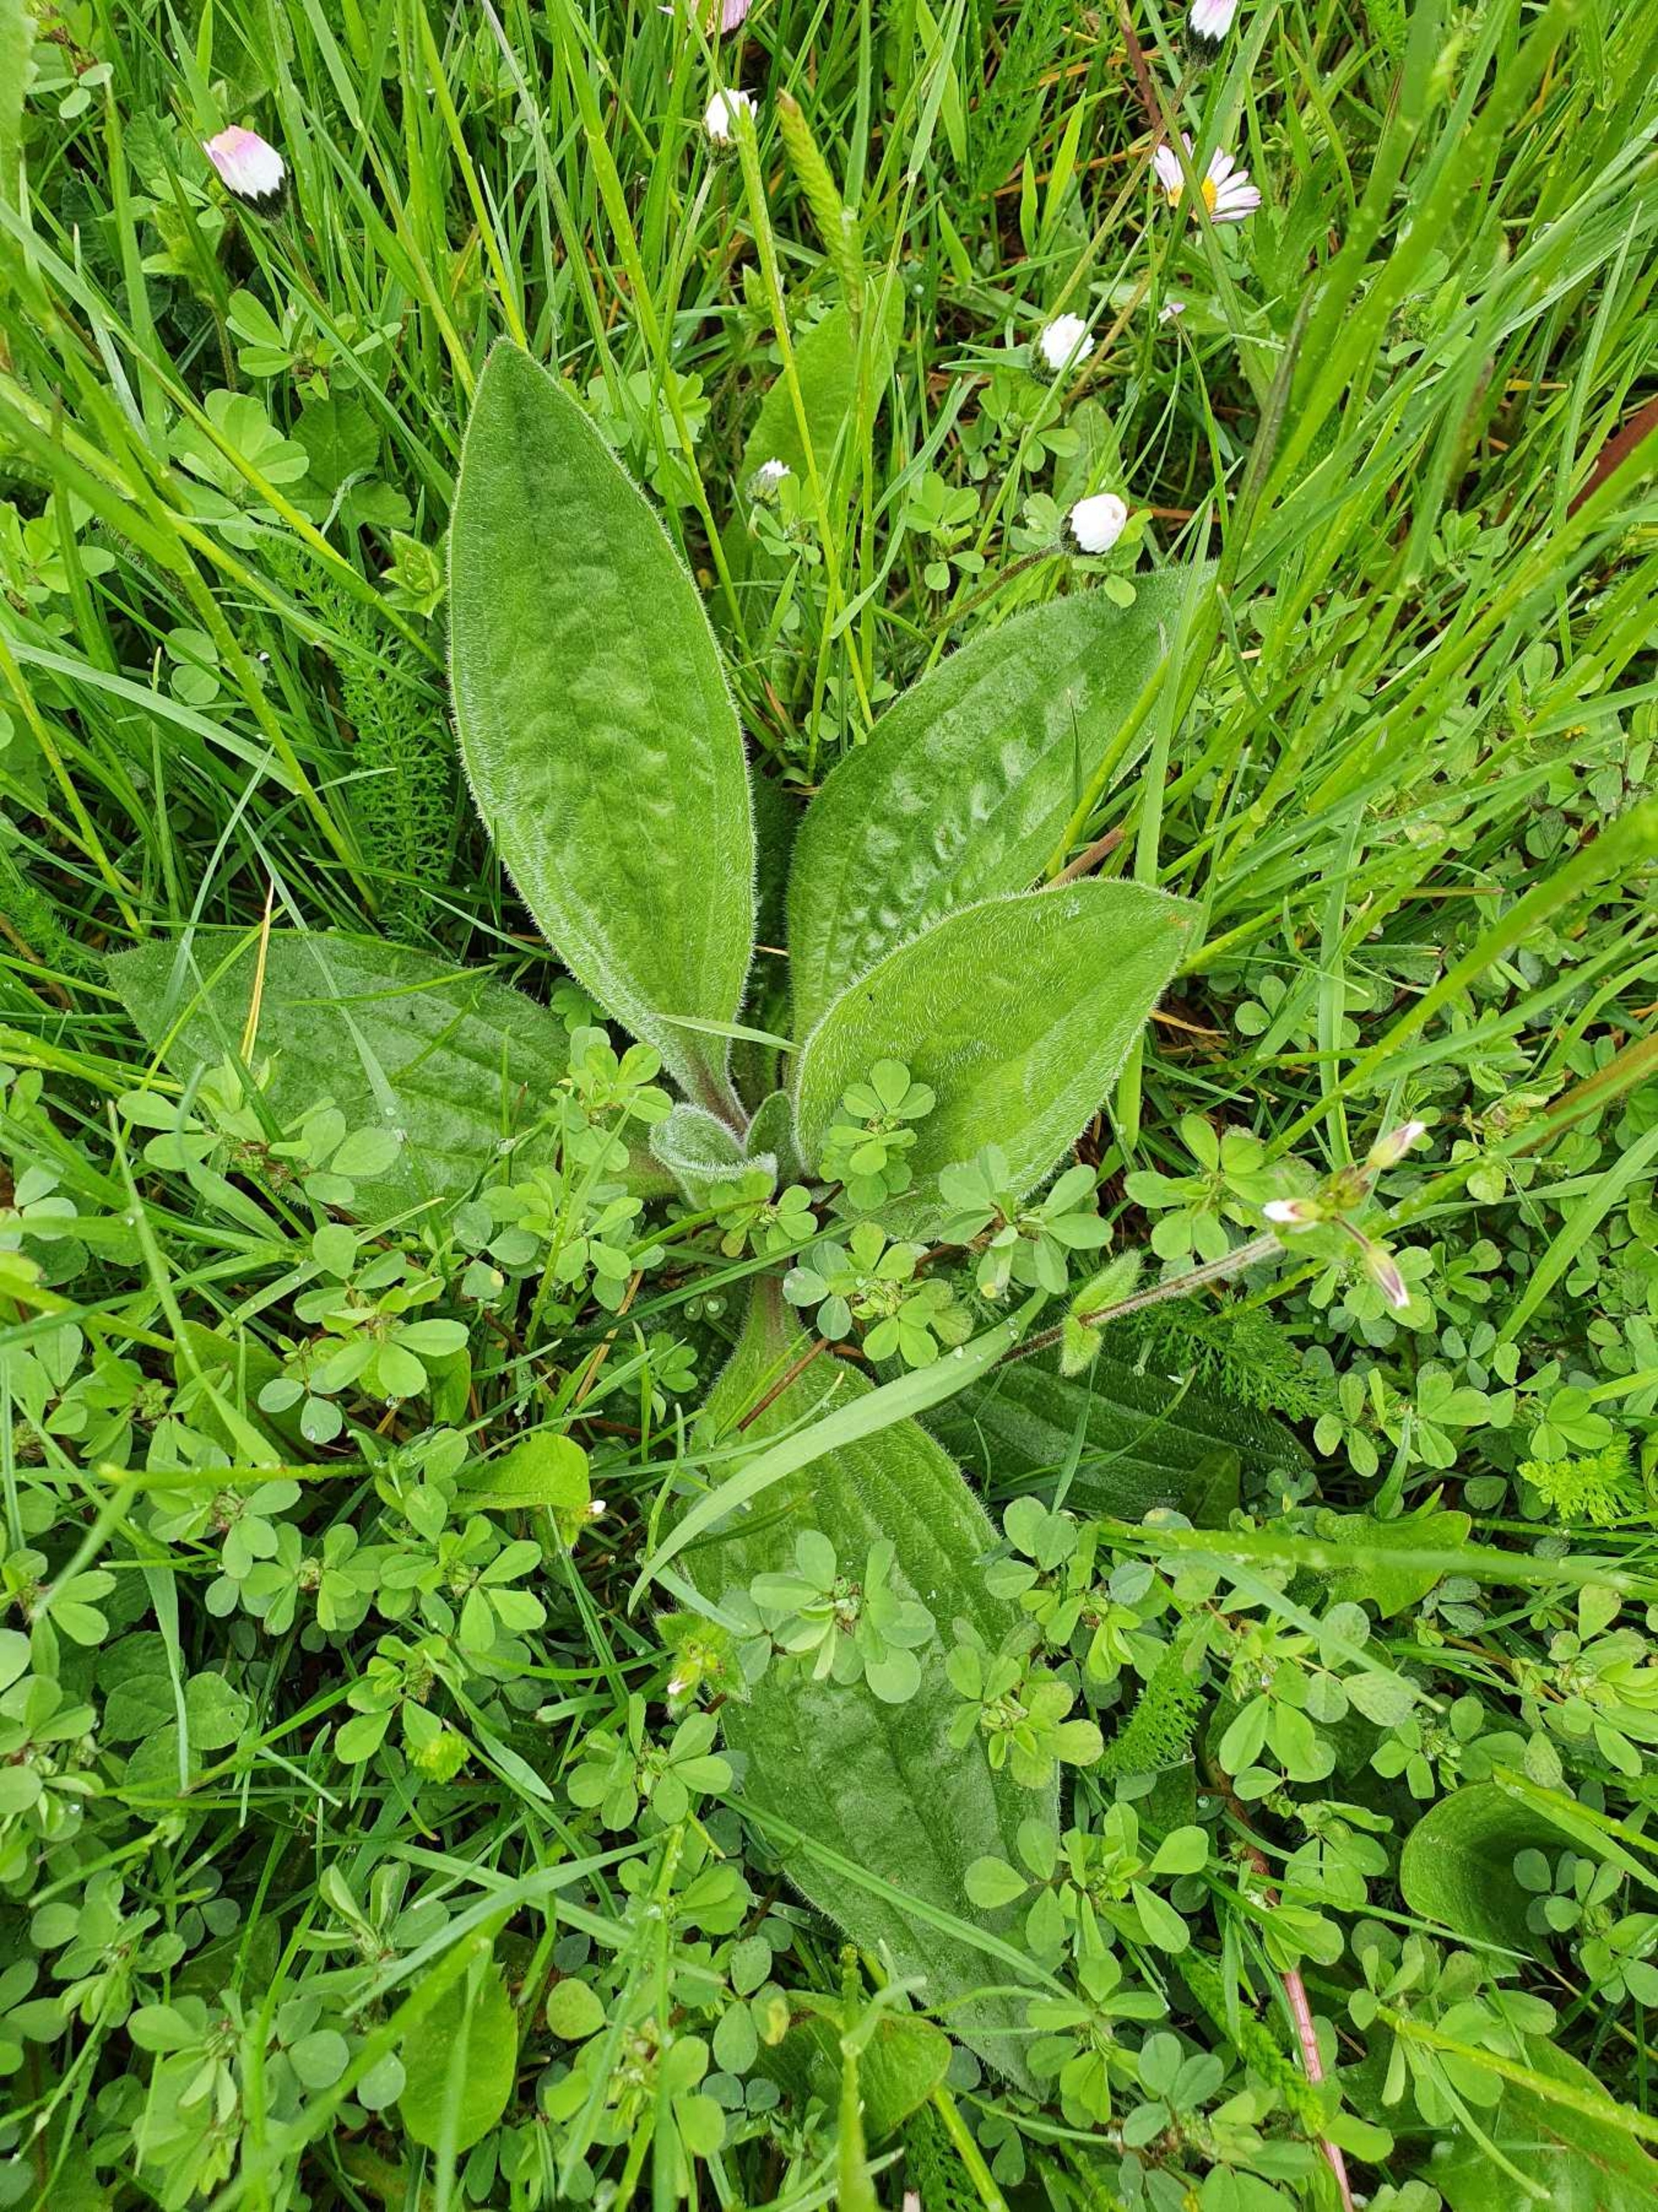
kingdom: Plantae
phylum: Tracheophyta
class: Magnoliopsida
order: Lamiales
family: Plantaginaceae
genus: Plantago
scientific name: Plantago media
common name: Dunet vejbred
